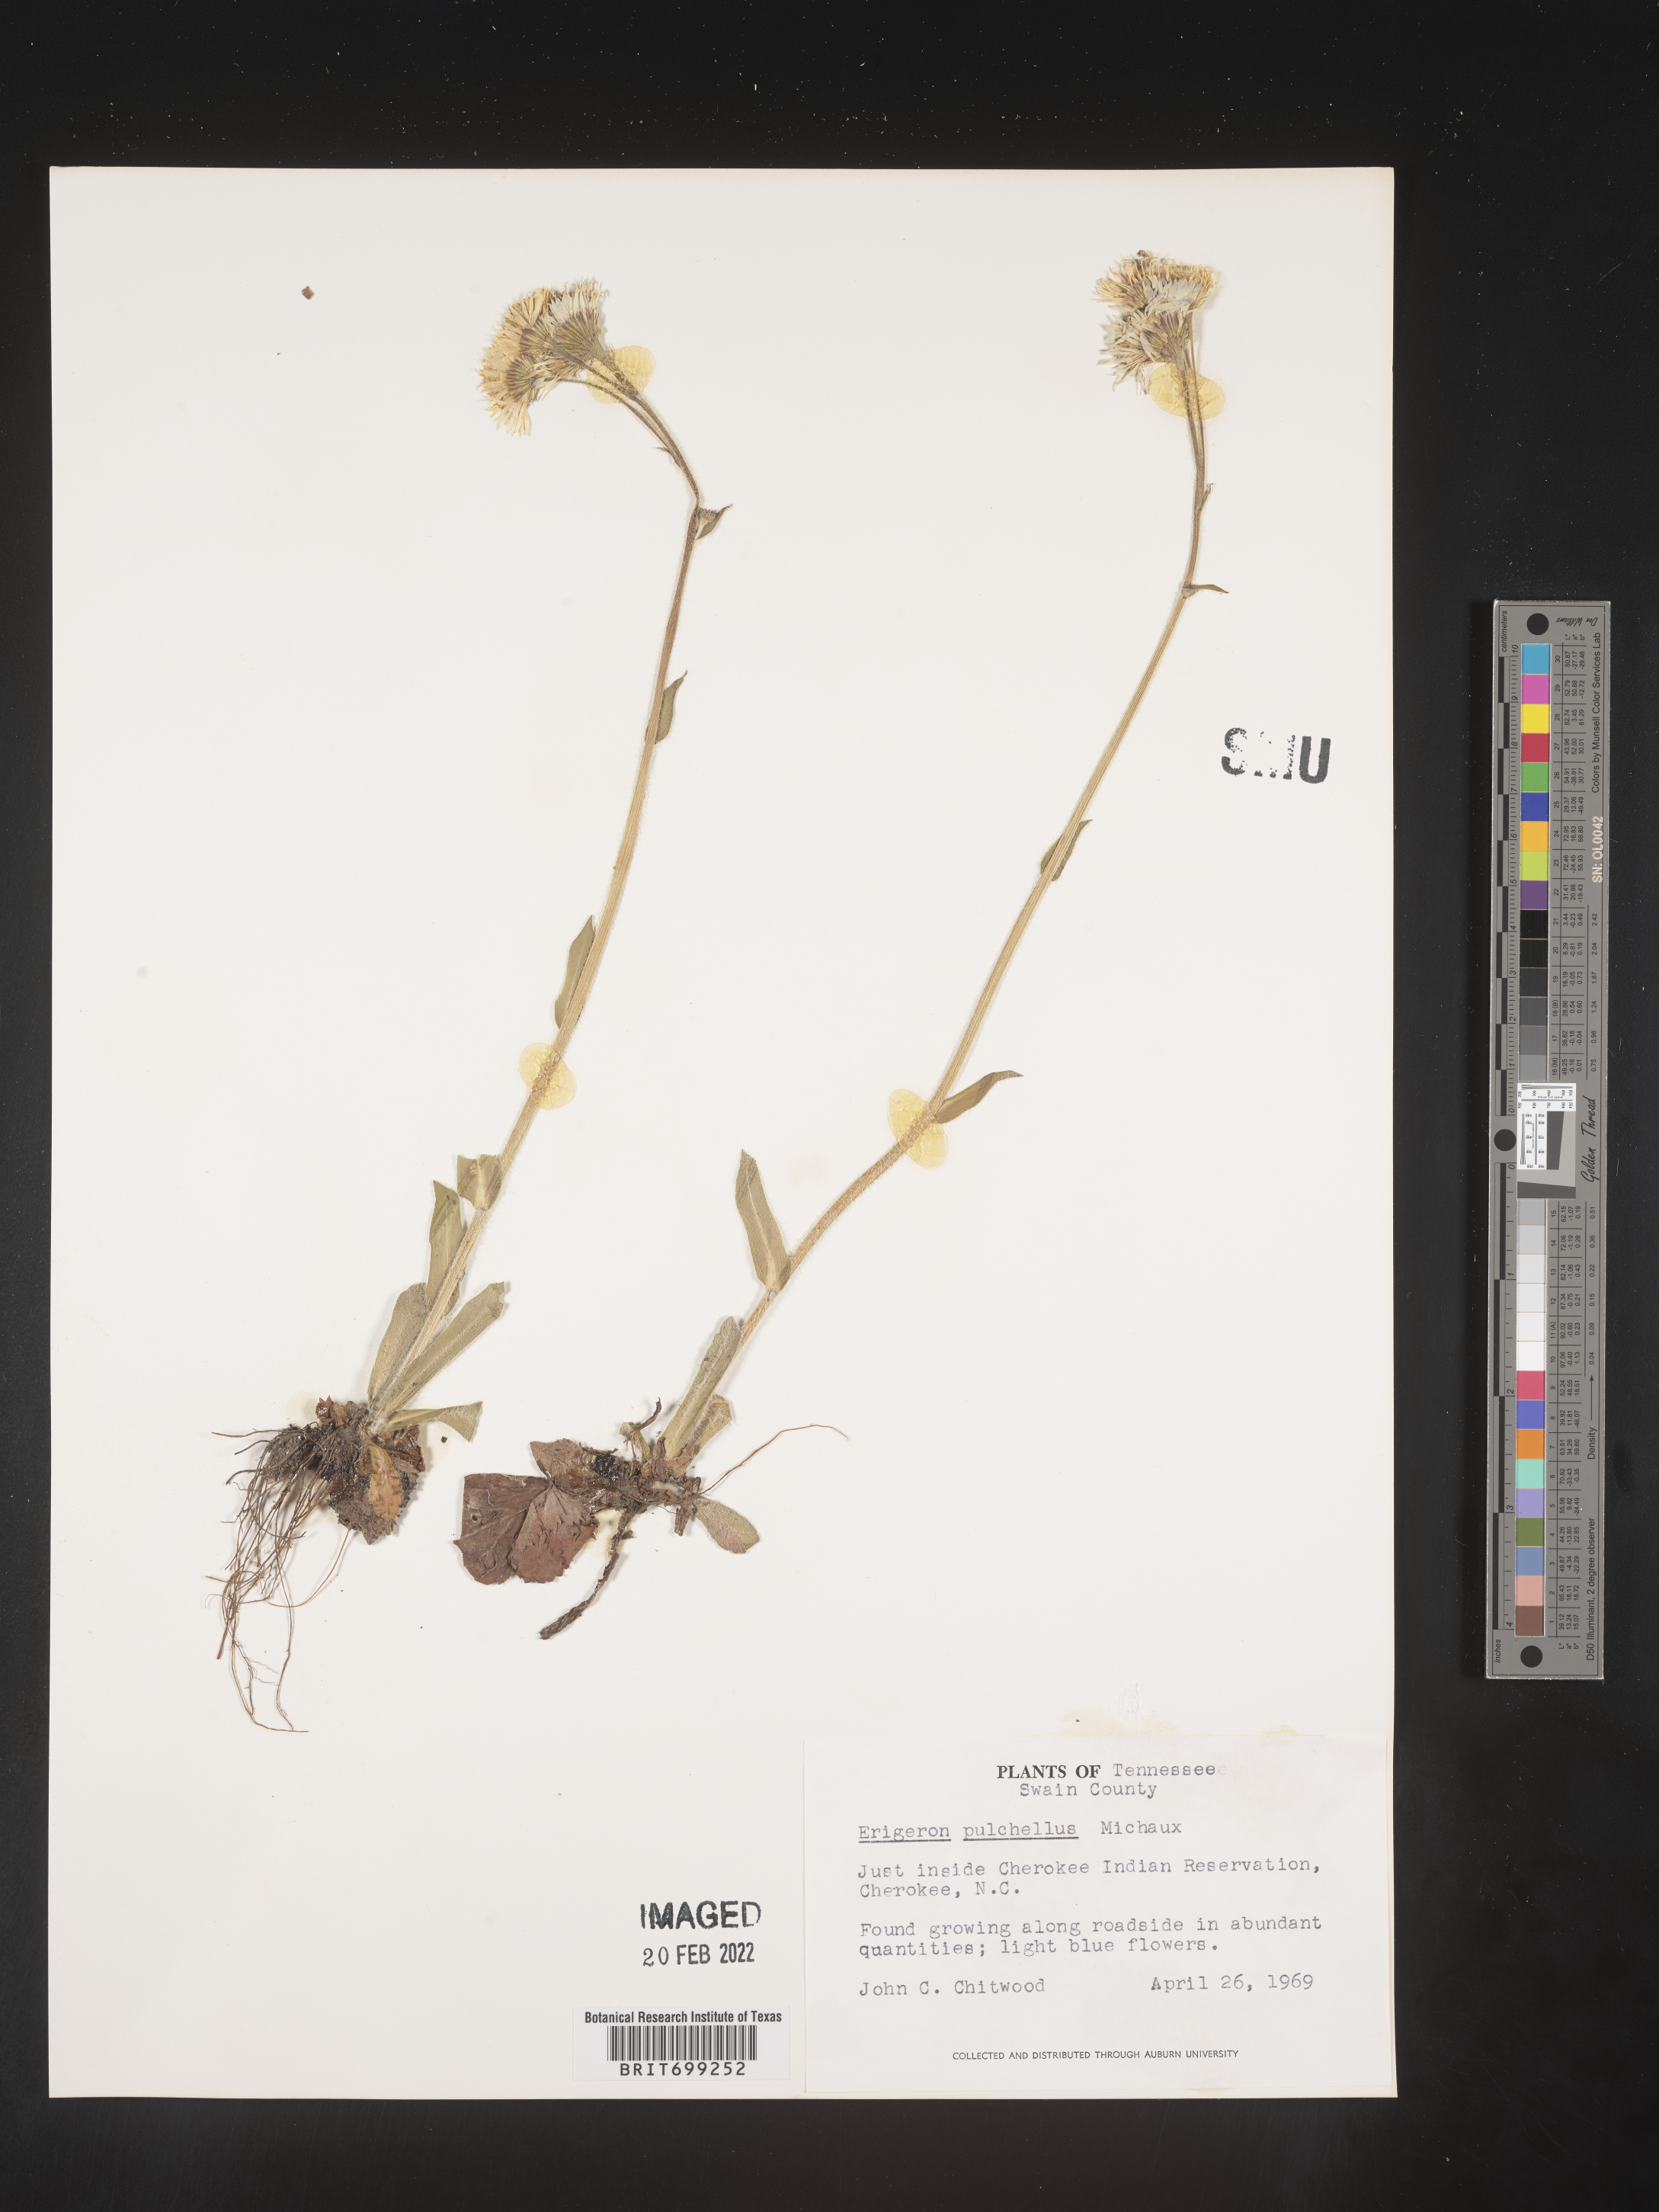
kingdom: Plantae
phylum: Tracheophyta
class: Magnoliopsida
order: Asterales
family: Asteraceae
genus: Erigeron
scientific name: Erigeron pulchellus
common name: Hairy fleabane
